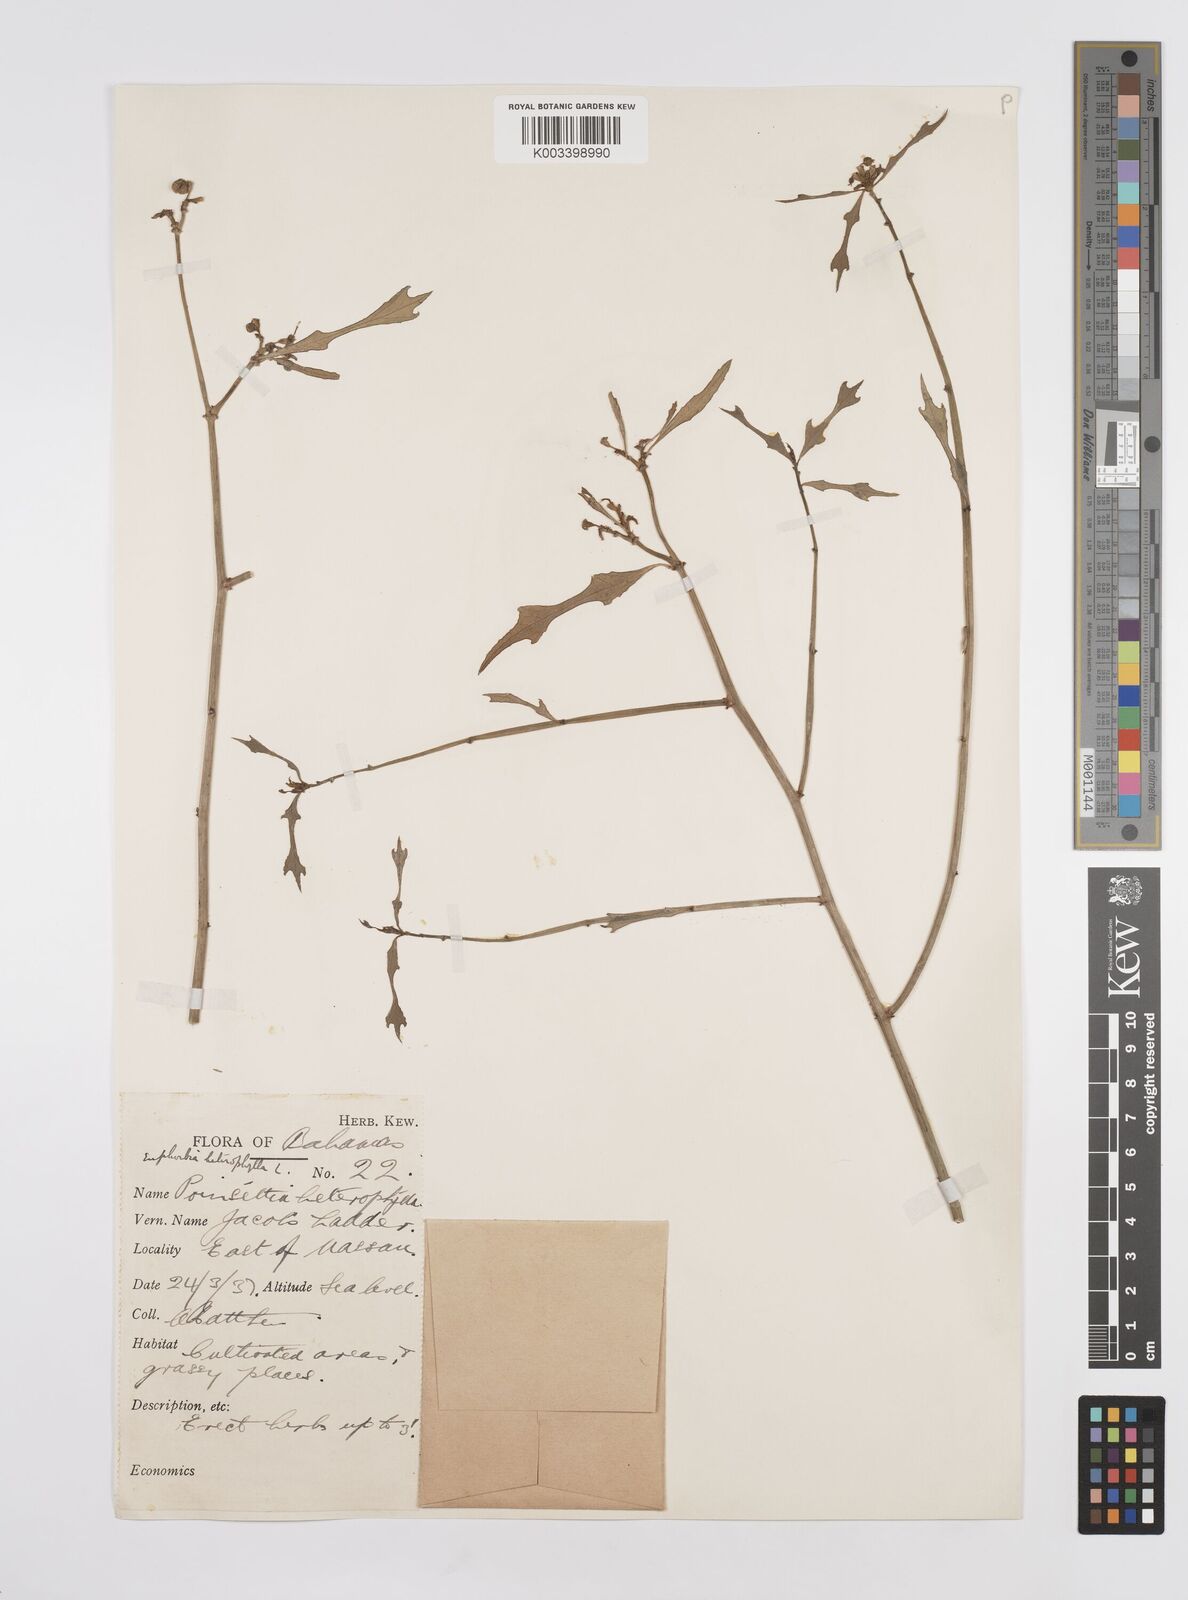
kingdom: Plantae
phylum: Tracheophyta
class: Magnoliopsida
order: Malpighiales
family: Euphorbiaceae
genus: Euphorbia
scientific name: Euphorbia heterophylla
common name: Mexican fireplant
